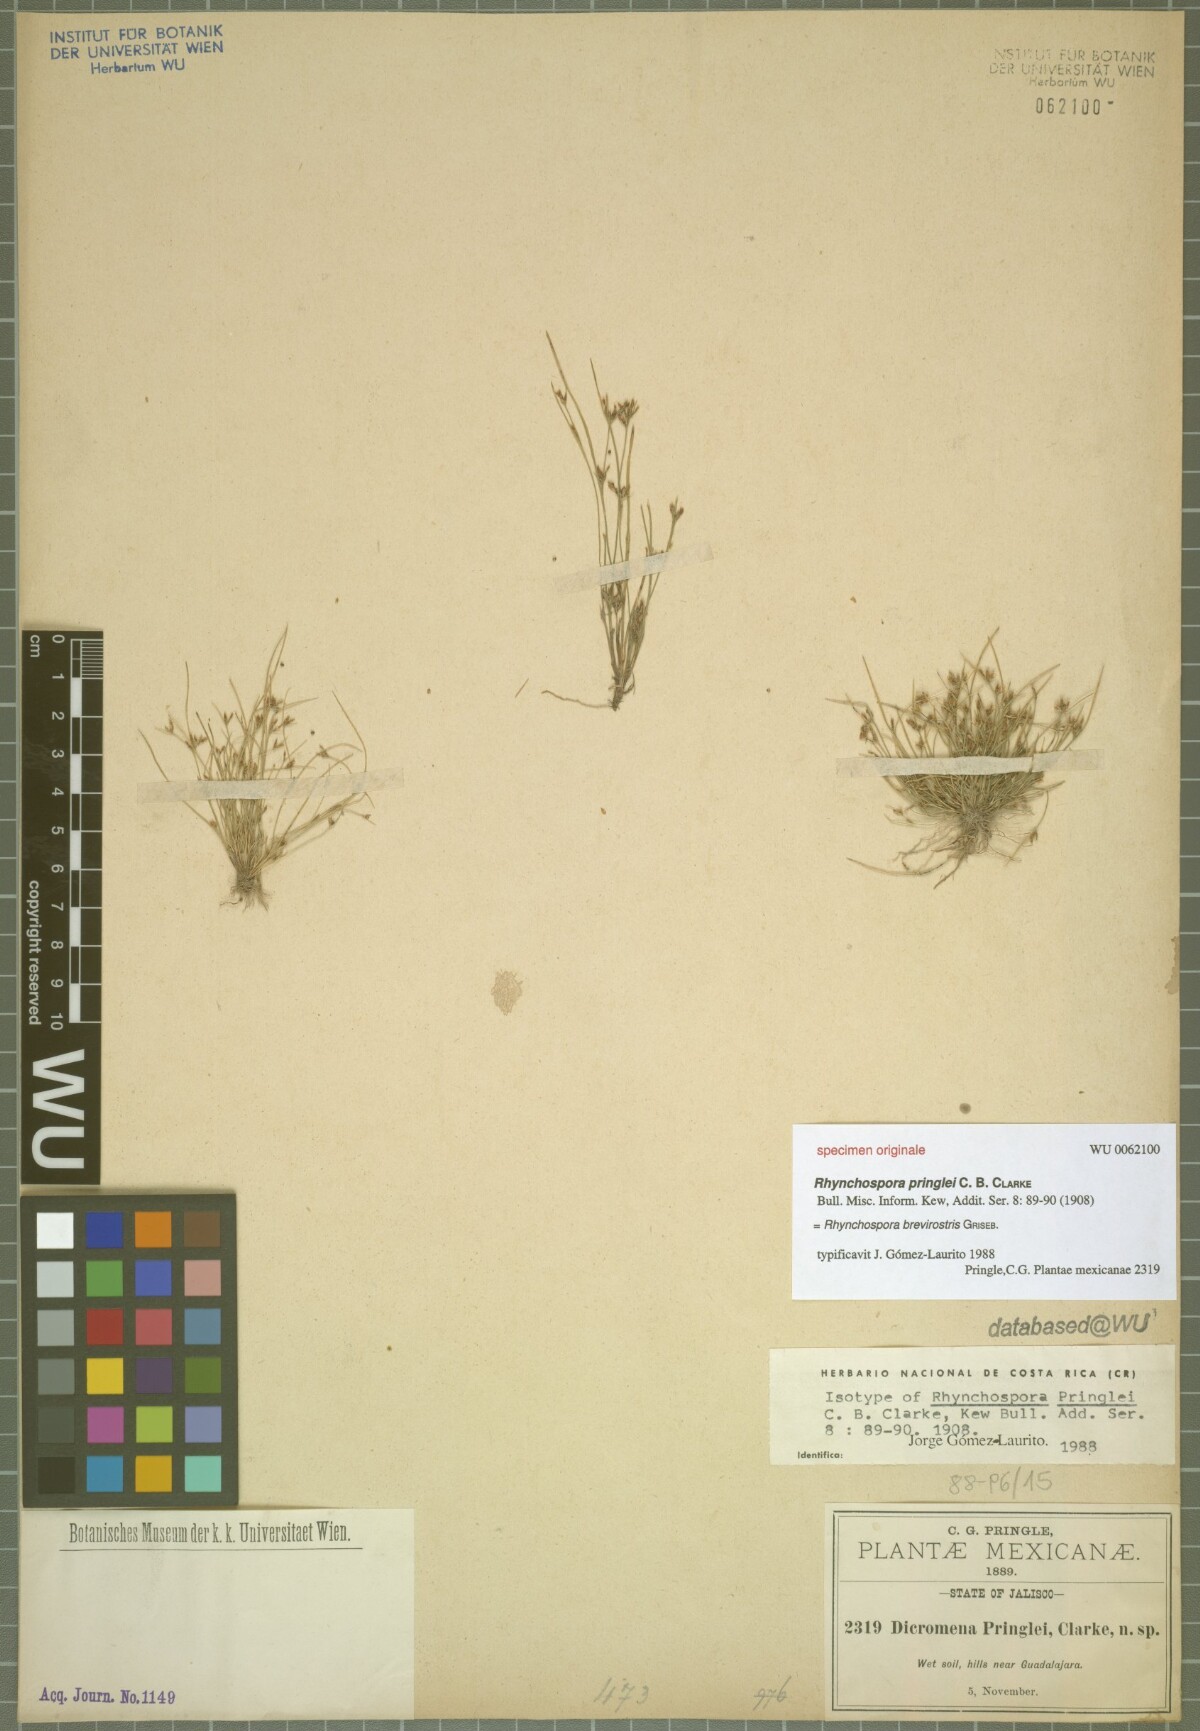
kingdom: Plantae
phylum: Tracheophyta
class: Liliopsida
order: Poales
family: Cyperaceae
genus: Rhynchospora
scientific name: Rhynchospora brevirostris
